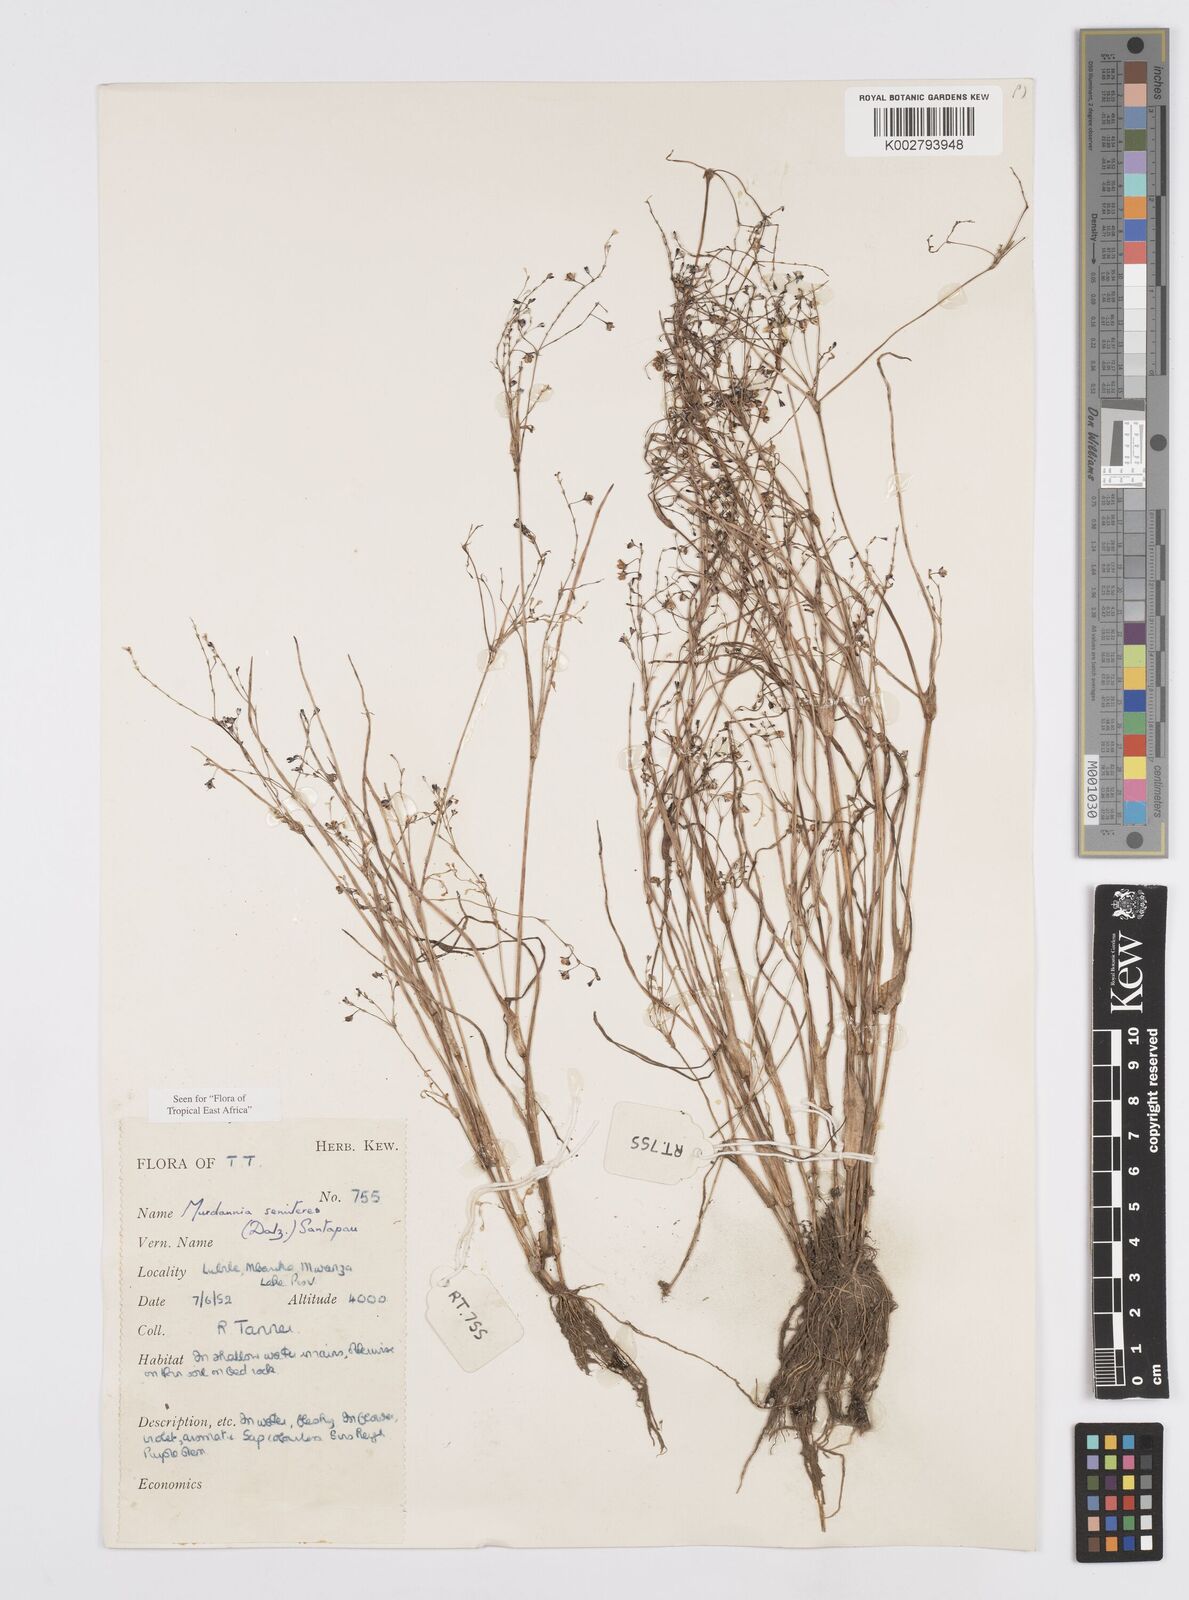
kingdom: Plantae
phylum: Tracheophyta
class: Liliopsida
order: Commelinales
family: Commelinaceae
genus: Murdannia
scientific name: Murdannia semiteres
